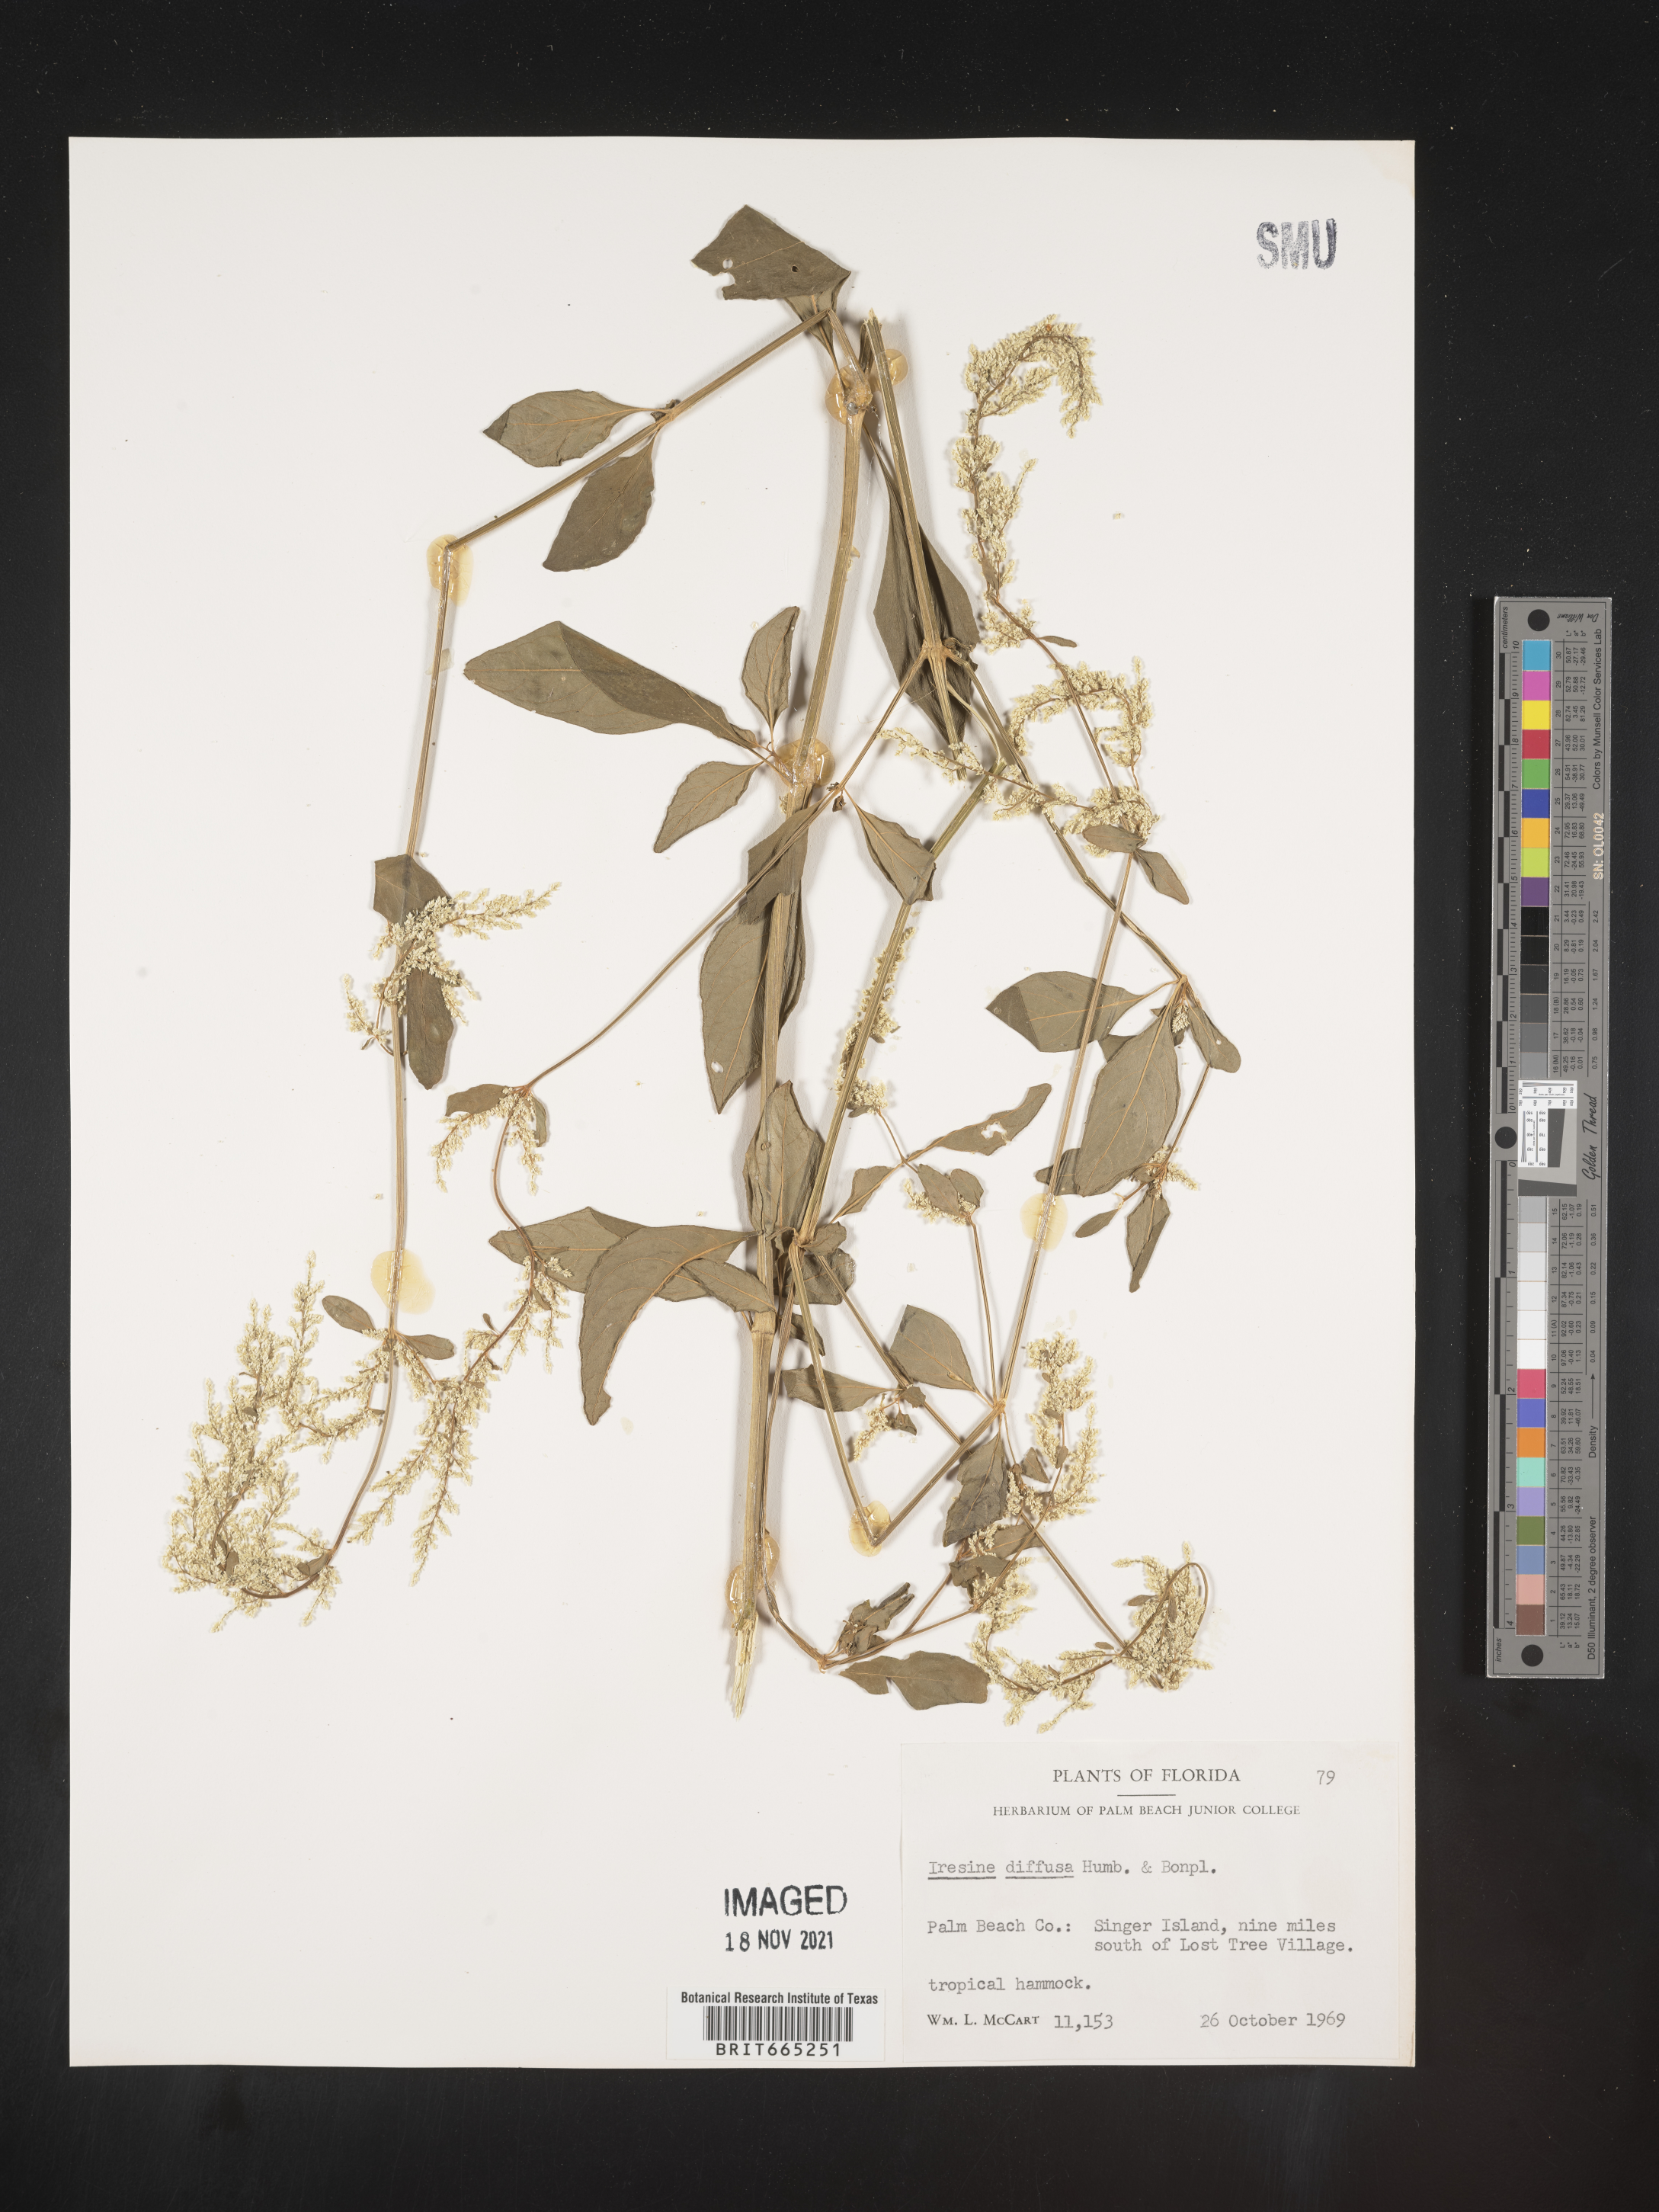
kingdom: Plantae
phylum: Tracheophyta
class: Magnoliopsida
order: Caryophyllales
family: Amaranthaceae
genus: Iresine
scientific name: Iresine
